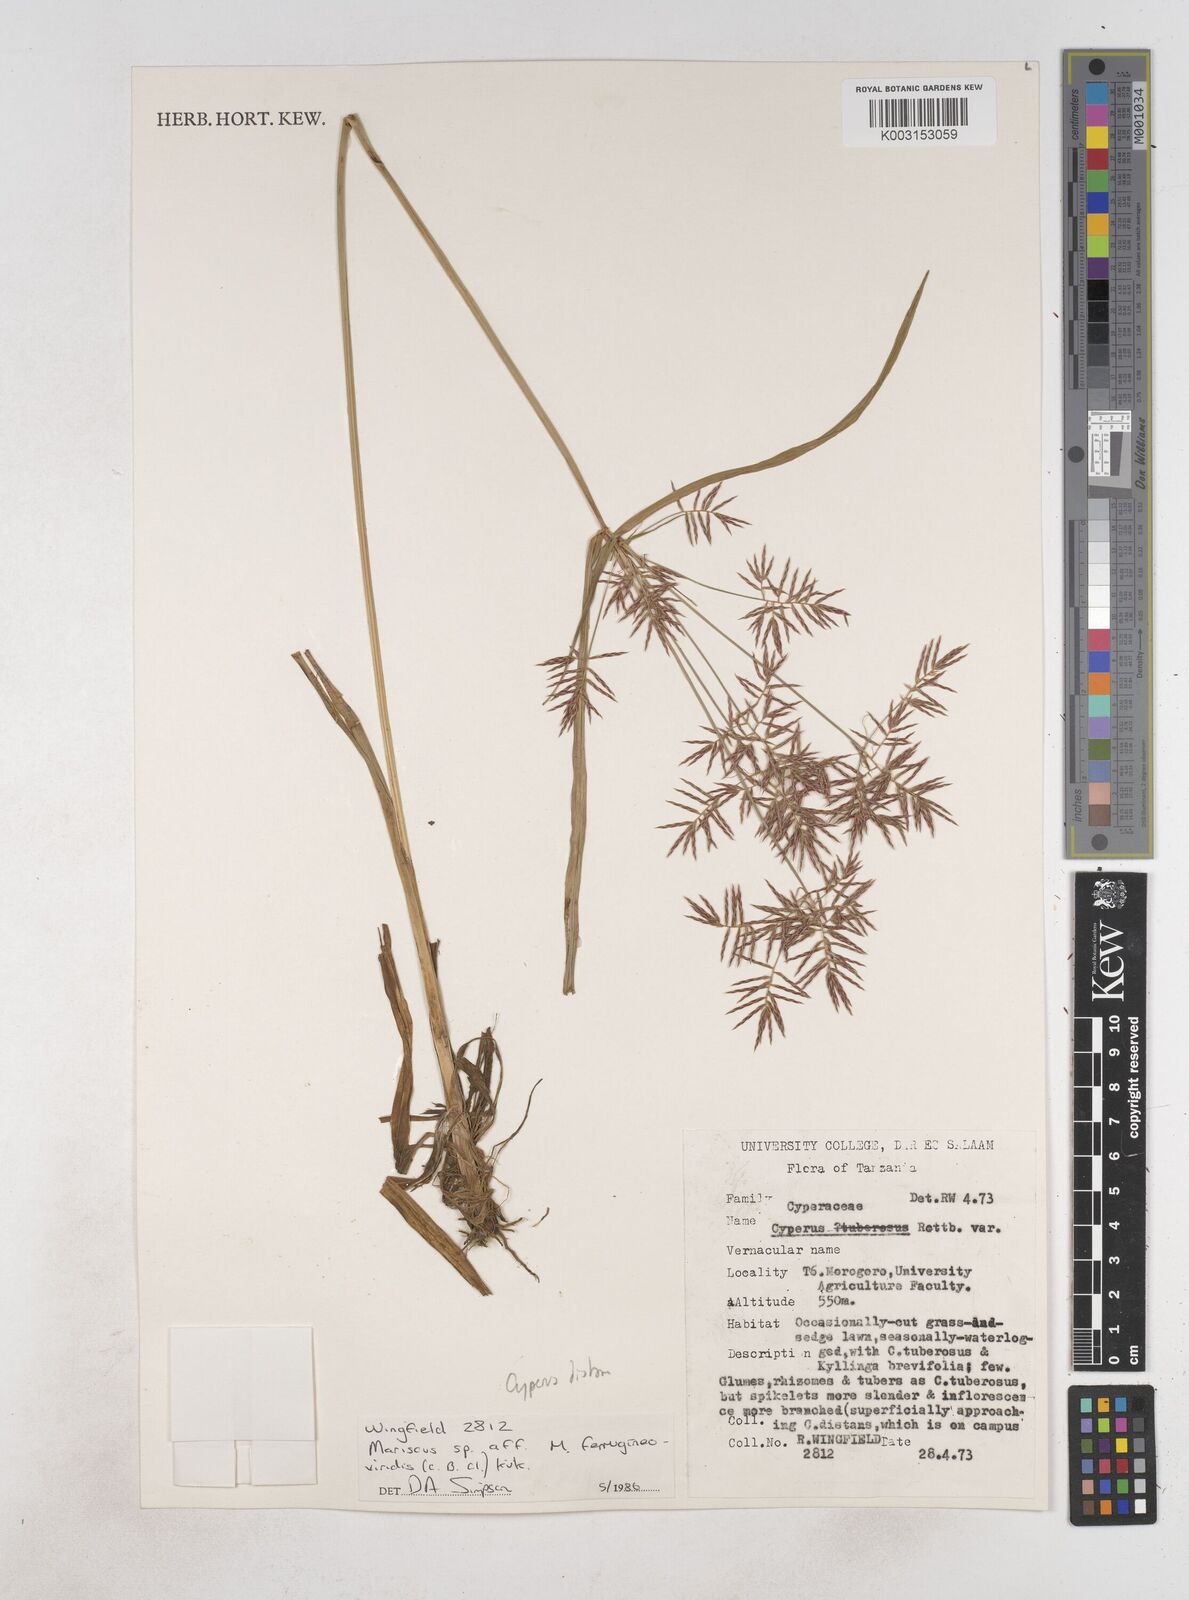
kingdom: Plantae
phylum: Tracheophyta
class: Liliopsida
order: Poales
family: Cyperaceae
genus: Cyperus
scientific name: Cyperus distans
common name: Slender cyperus
